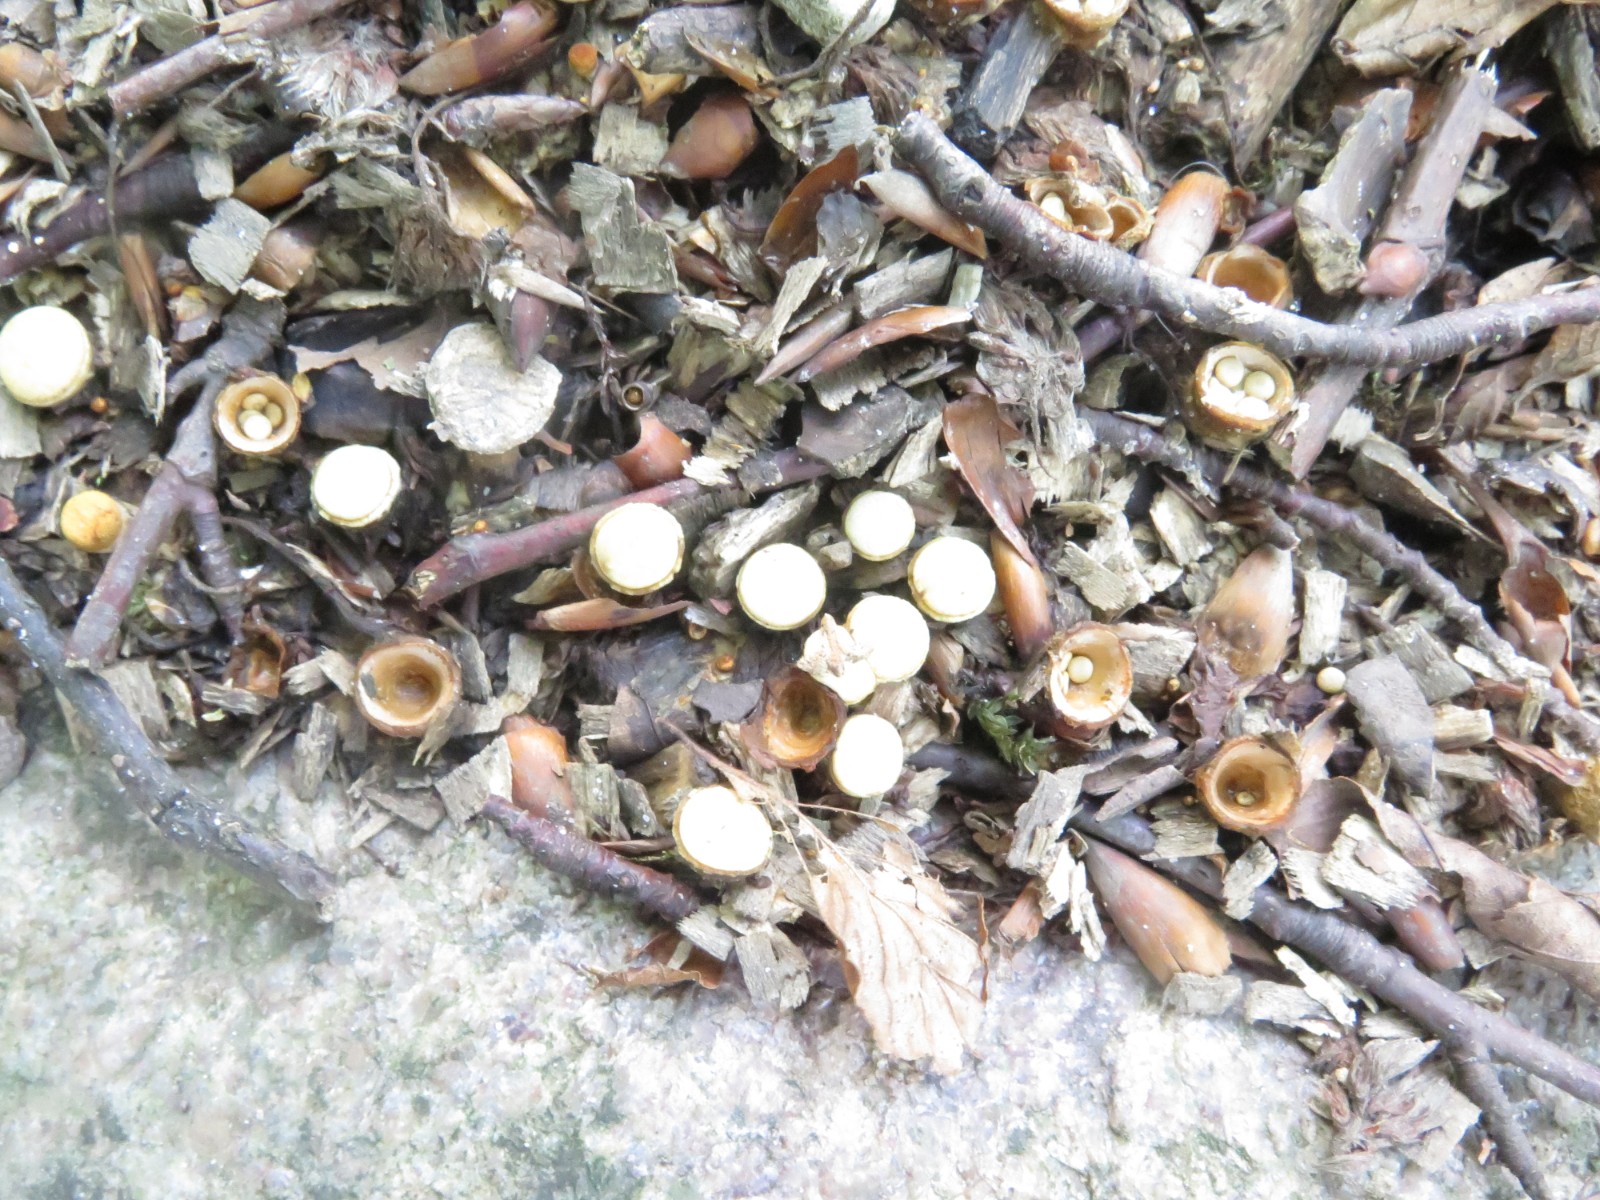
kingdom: Fungi
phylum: Basidiomycota
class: Agaricomycetes
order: Agaricales
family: Nidulariaceae
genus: Crucibulum
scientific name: Crucibulum crucibuliforme
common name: krukkesvamp
